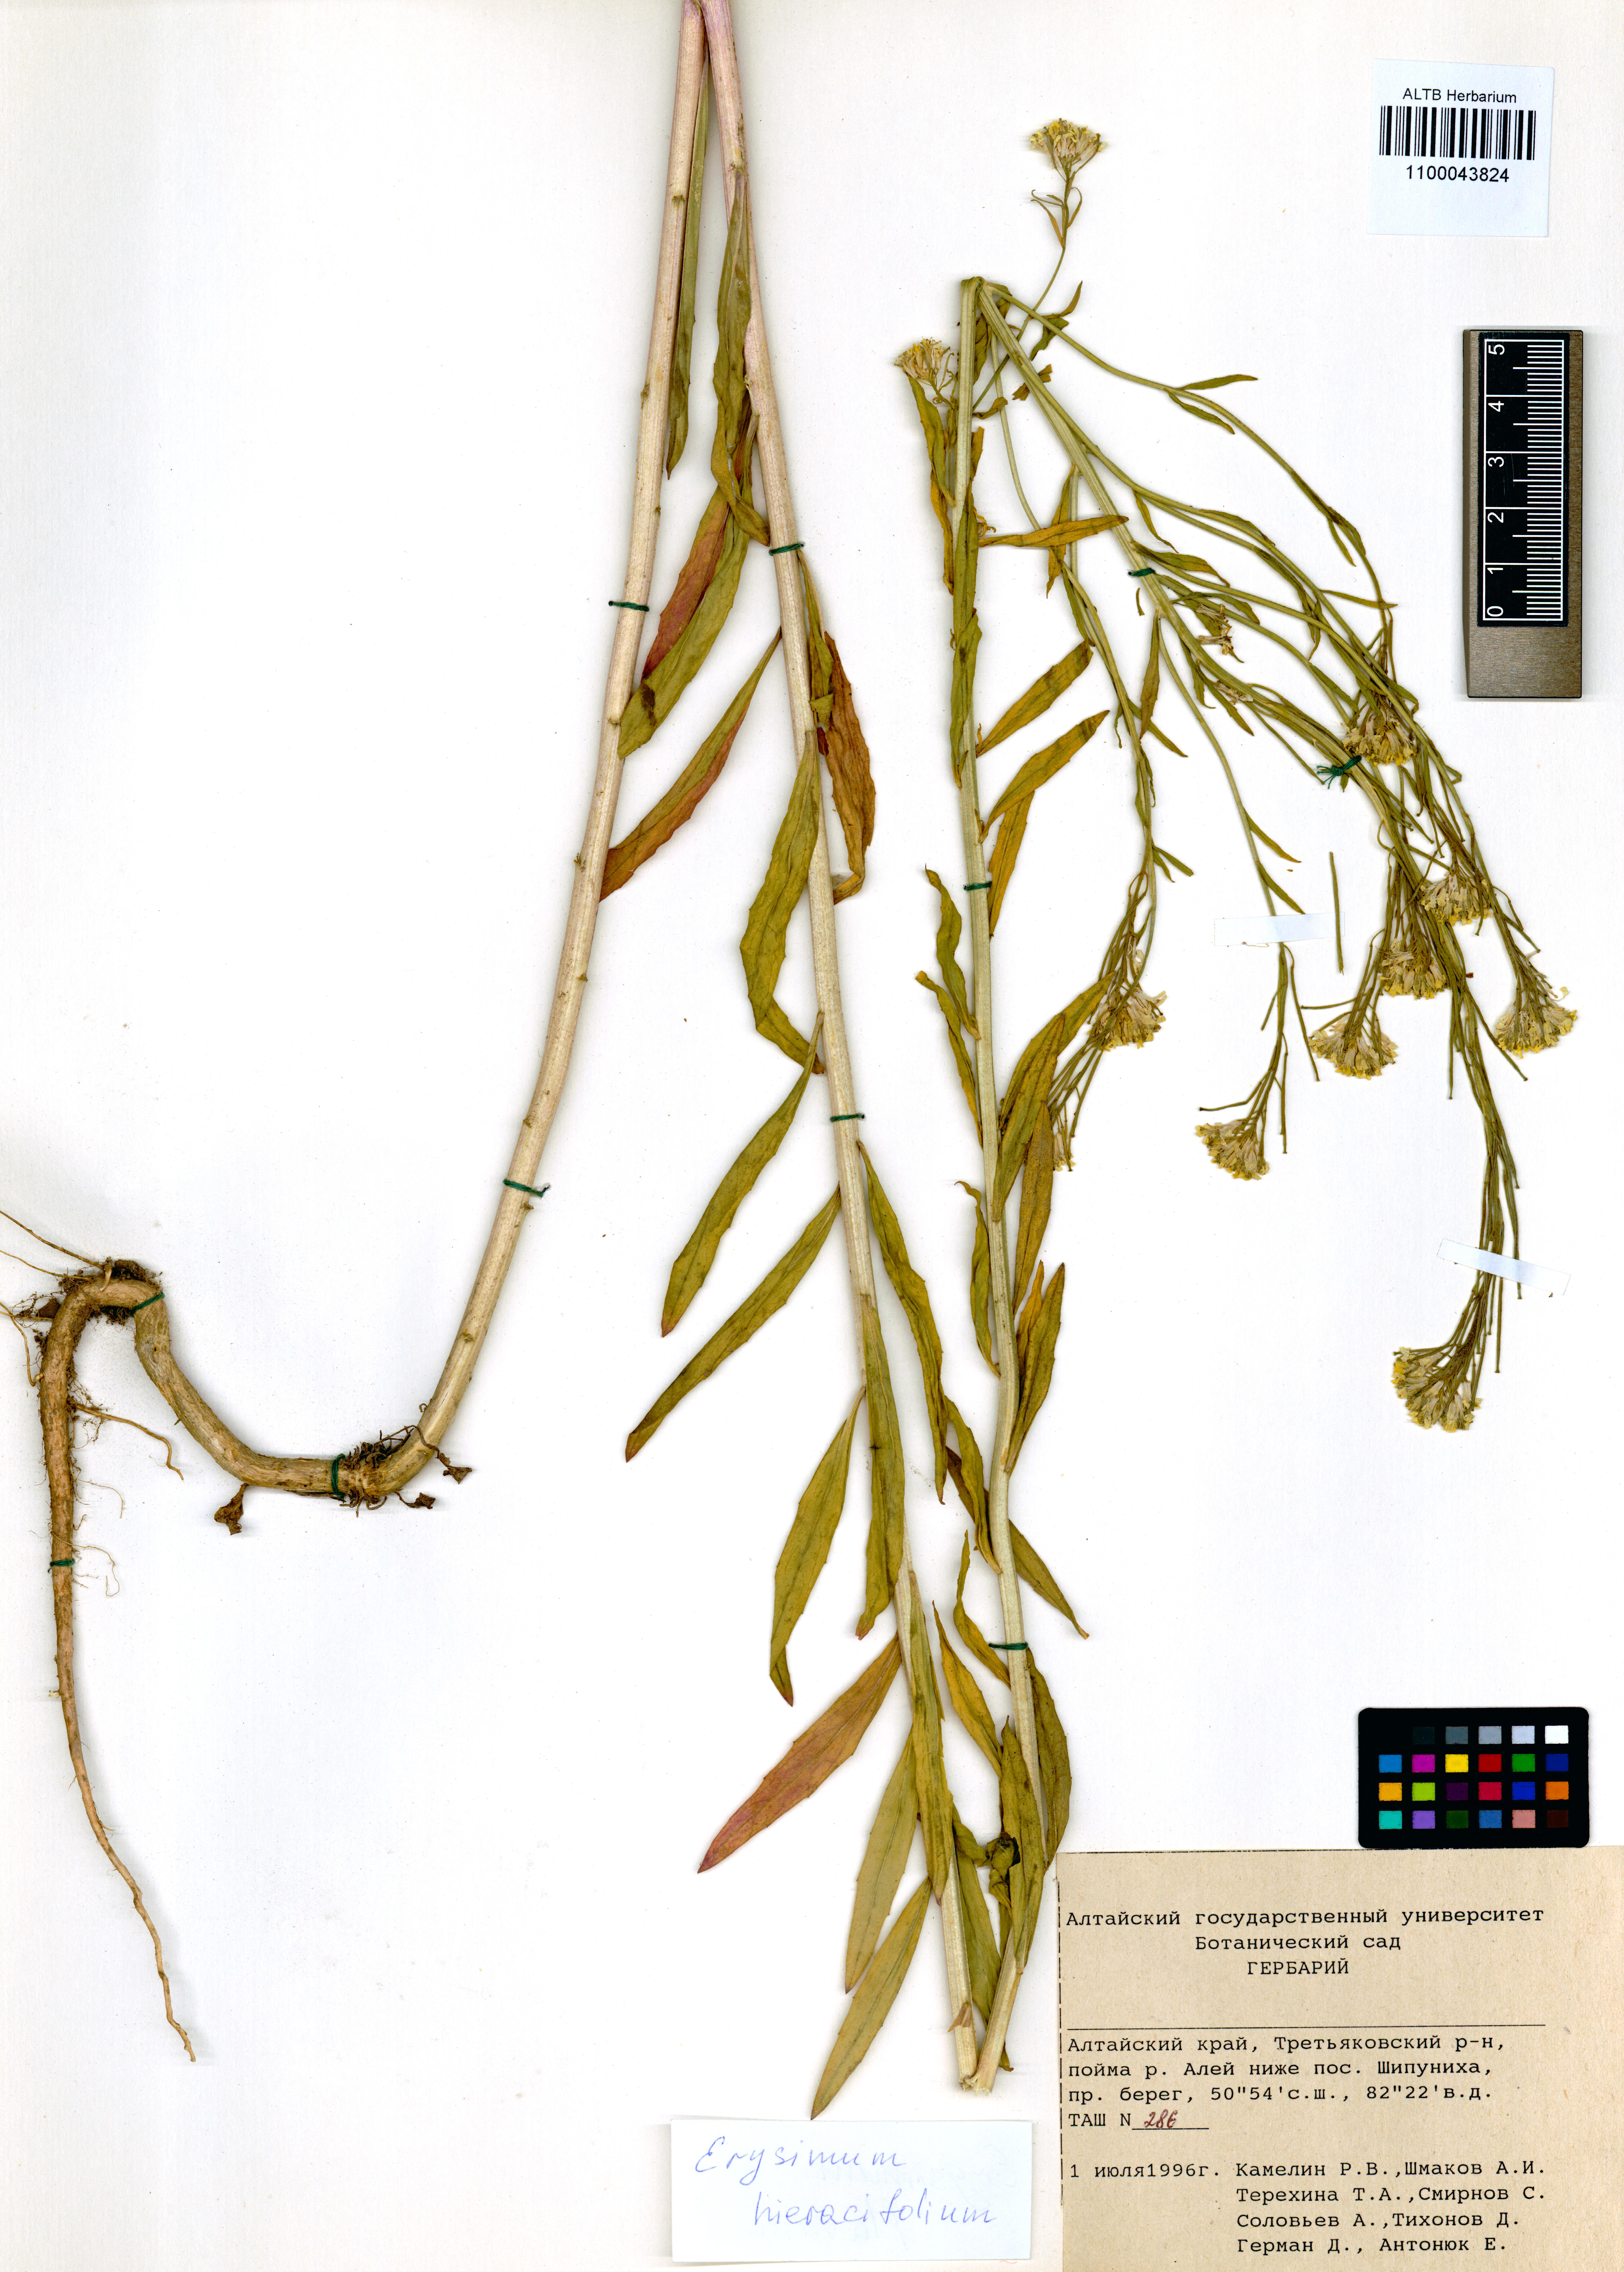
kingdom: Plantae
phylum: Tracheophyta
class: Magnoliopsida
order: Brassicales
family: Brassicaceae
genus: Erysimum
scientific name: Erysimum hieraciifolium
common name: European wallflower
